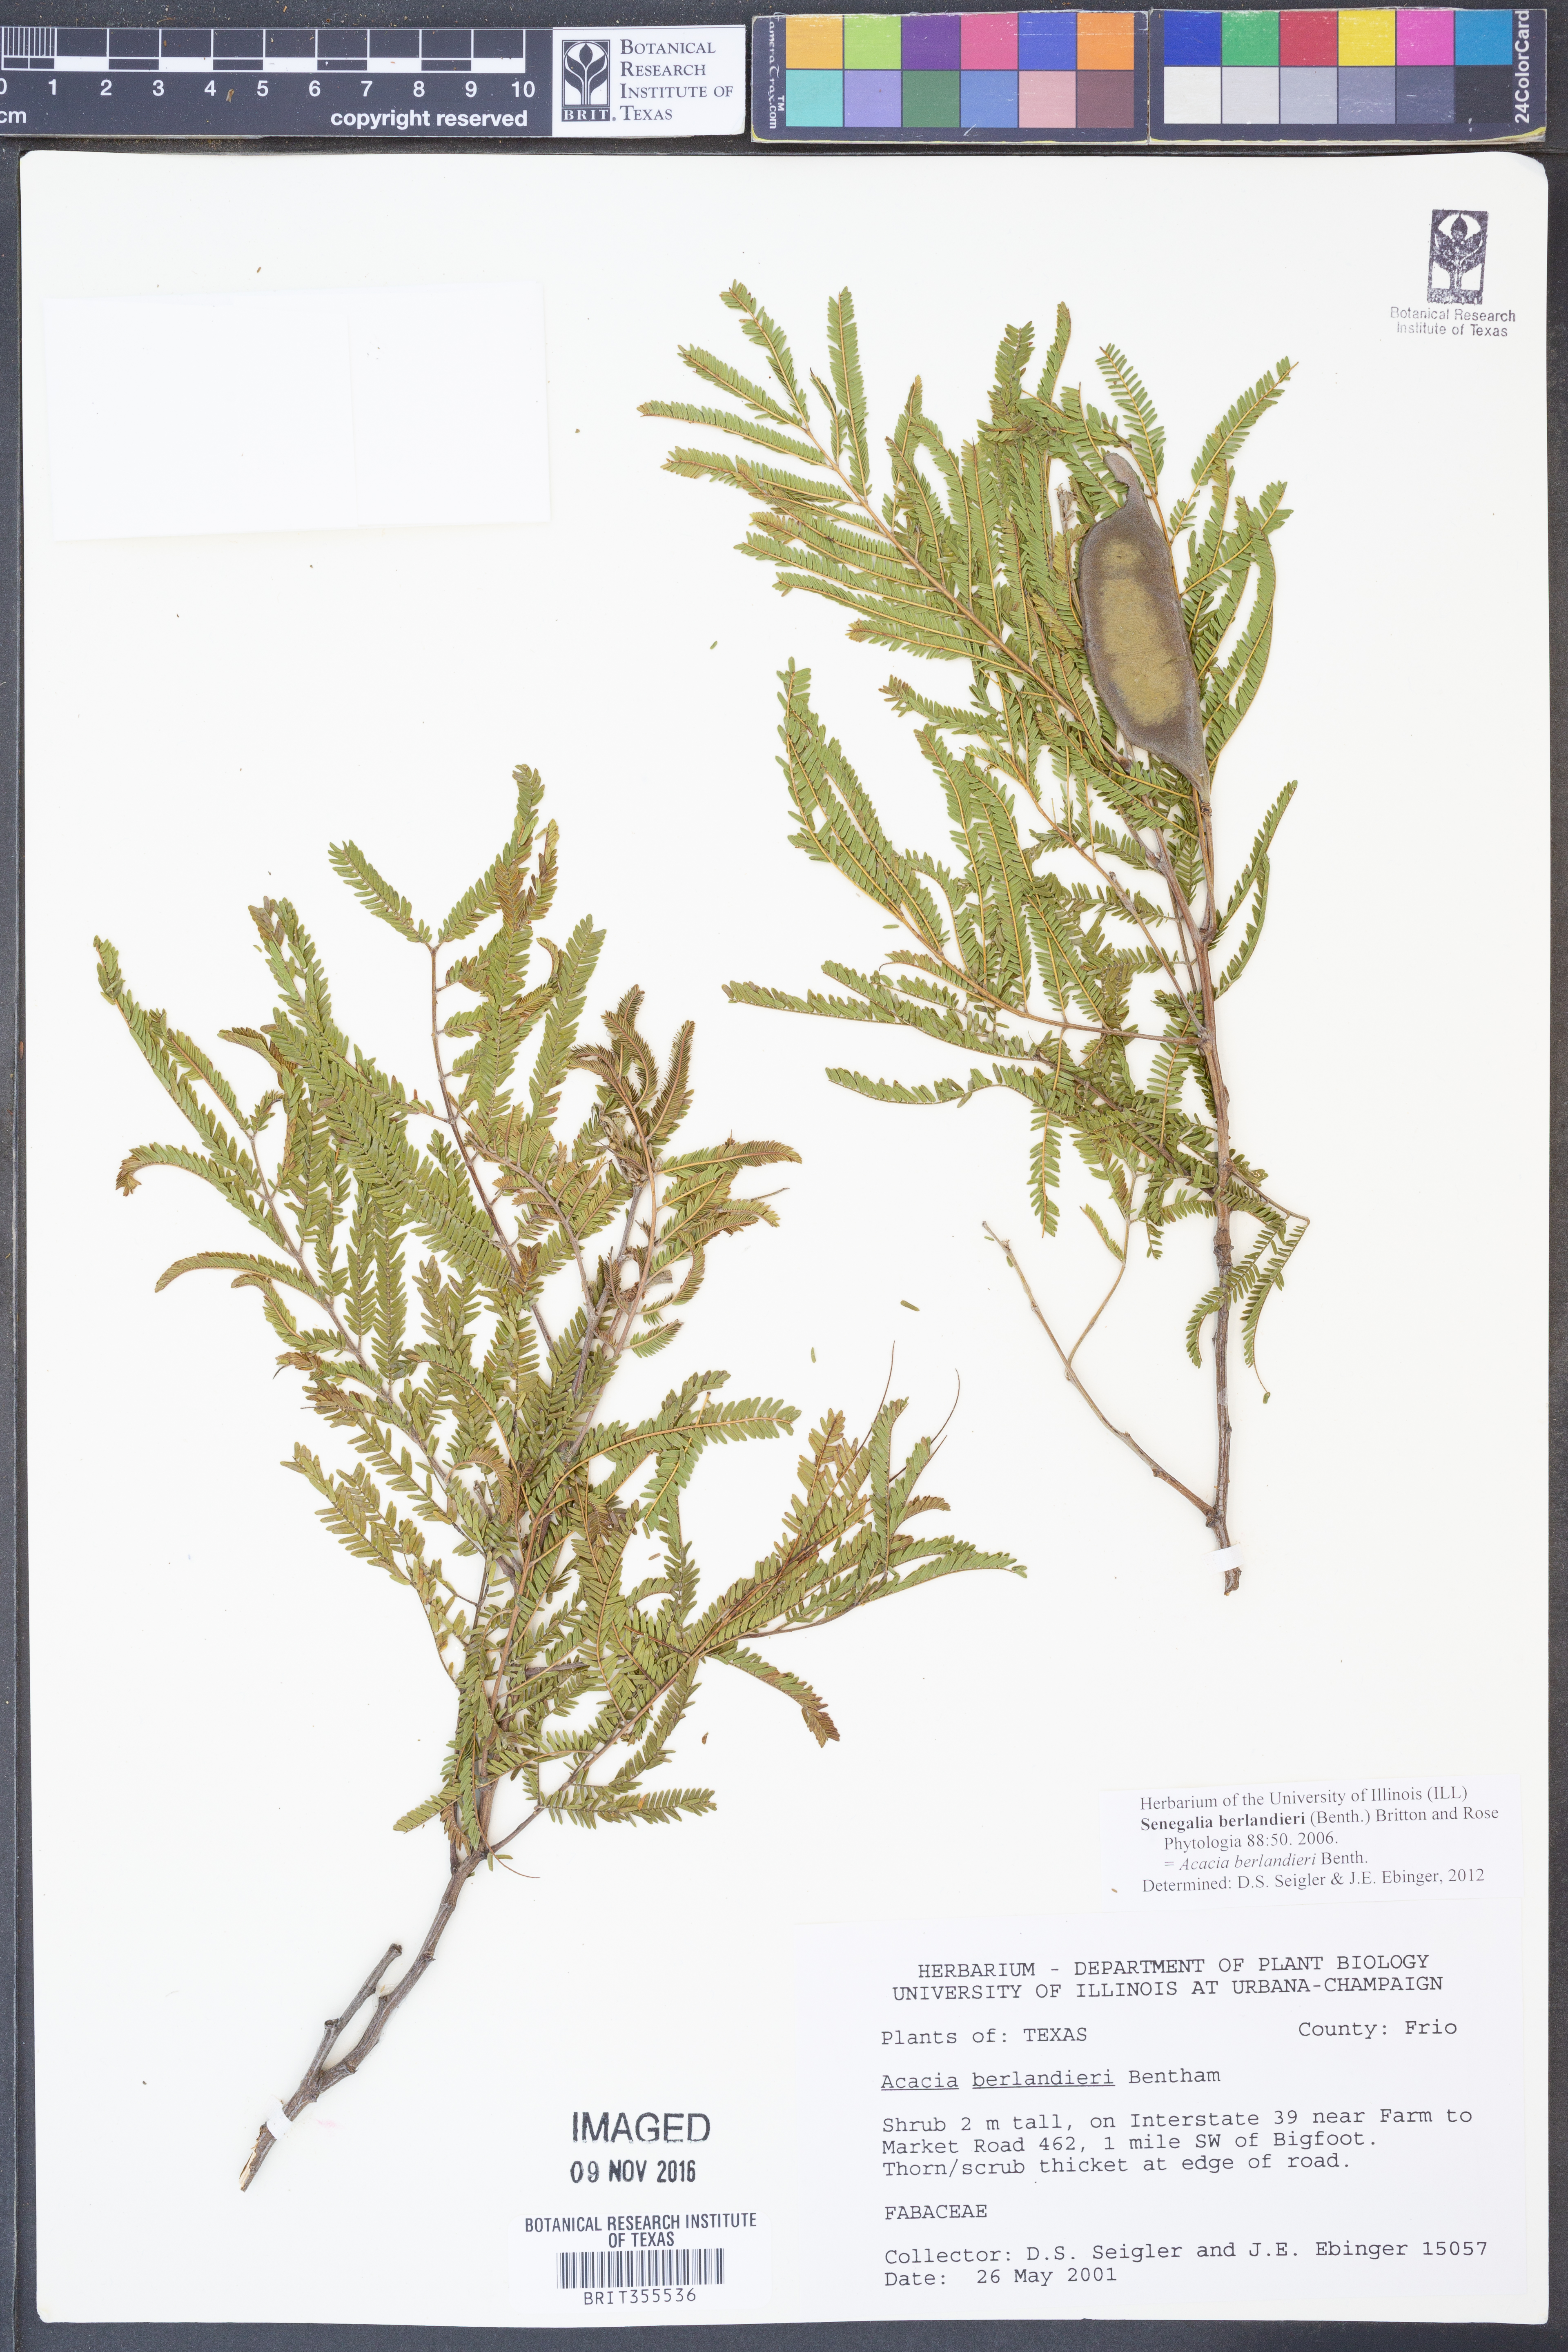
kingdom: Plantae
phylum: Tracheophyta
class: Magnoliopsida
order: Fabales
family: Fabaceae
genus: Senegalia
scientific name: Senegalia berlandieri
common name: Berlandier acacia
